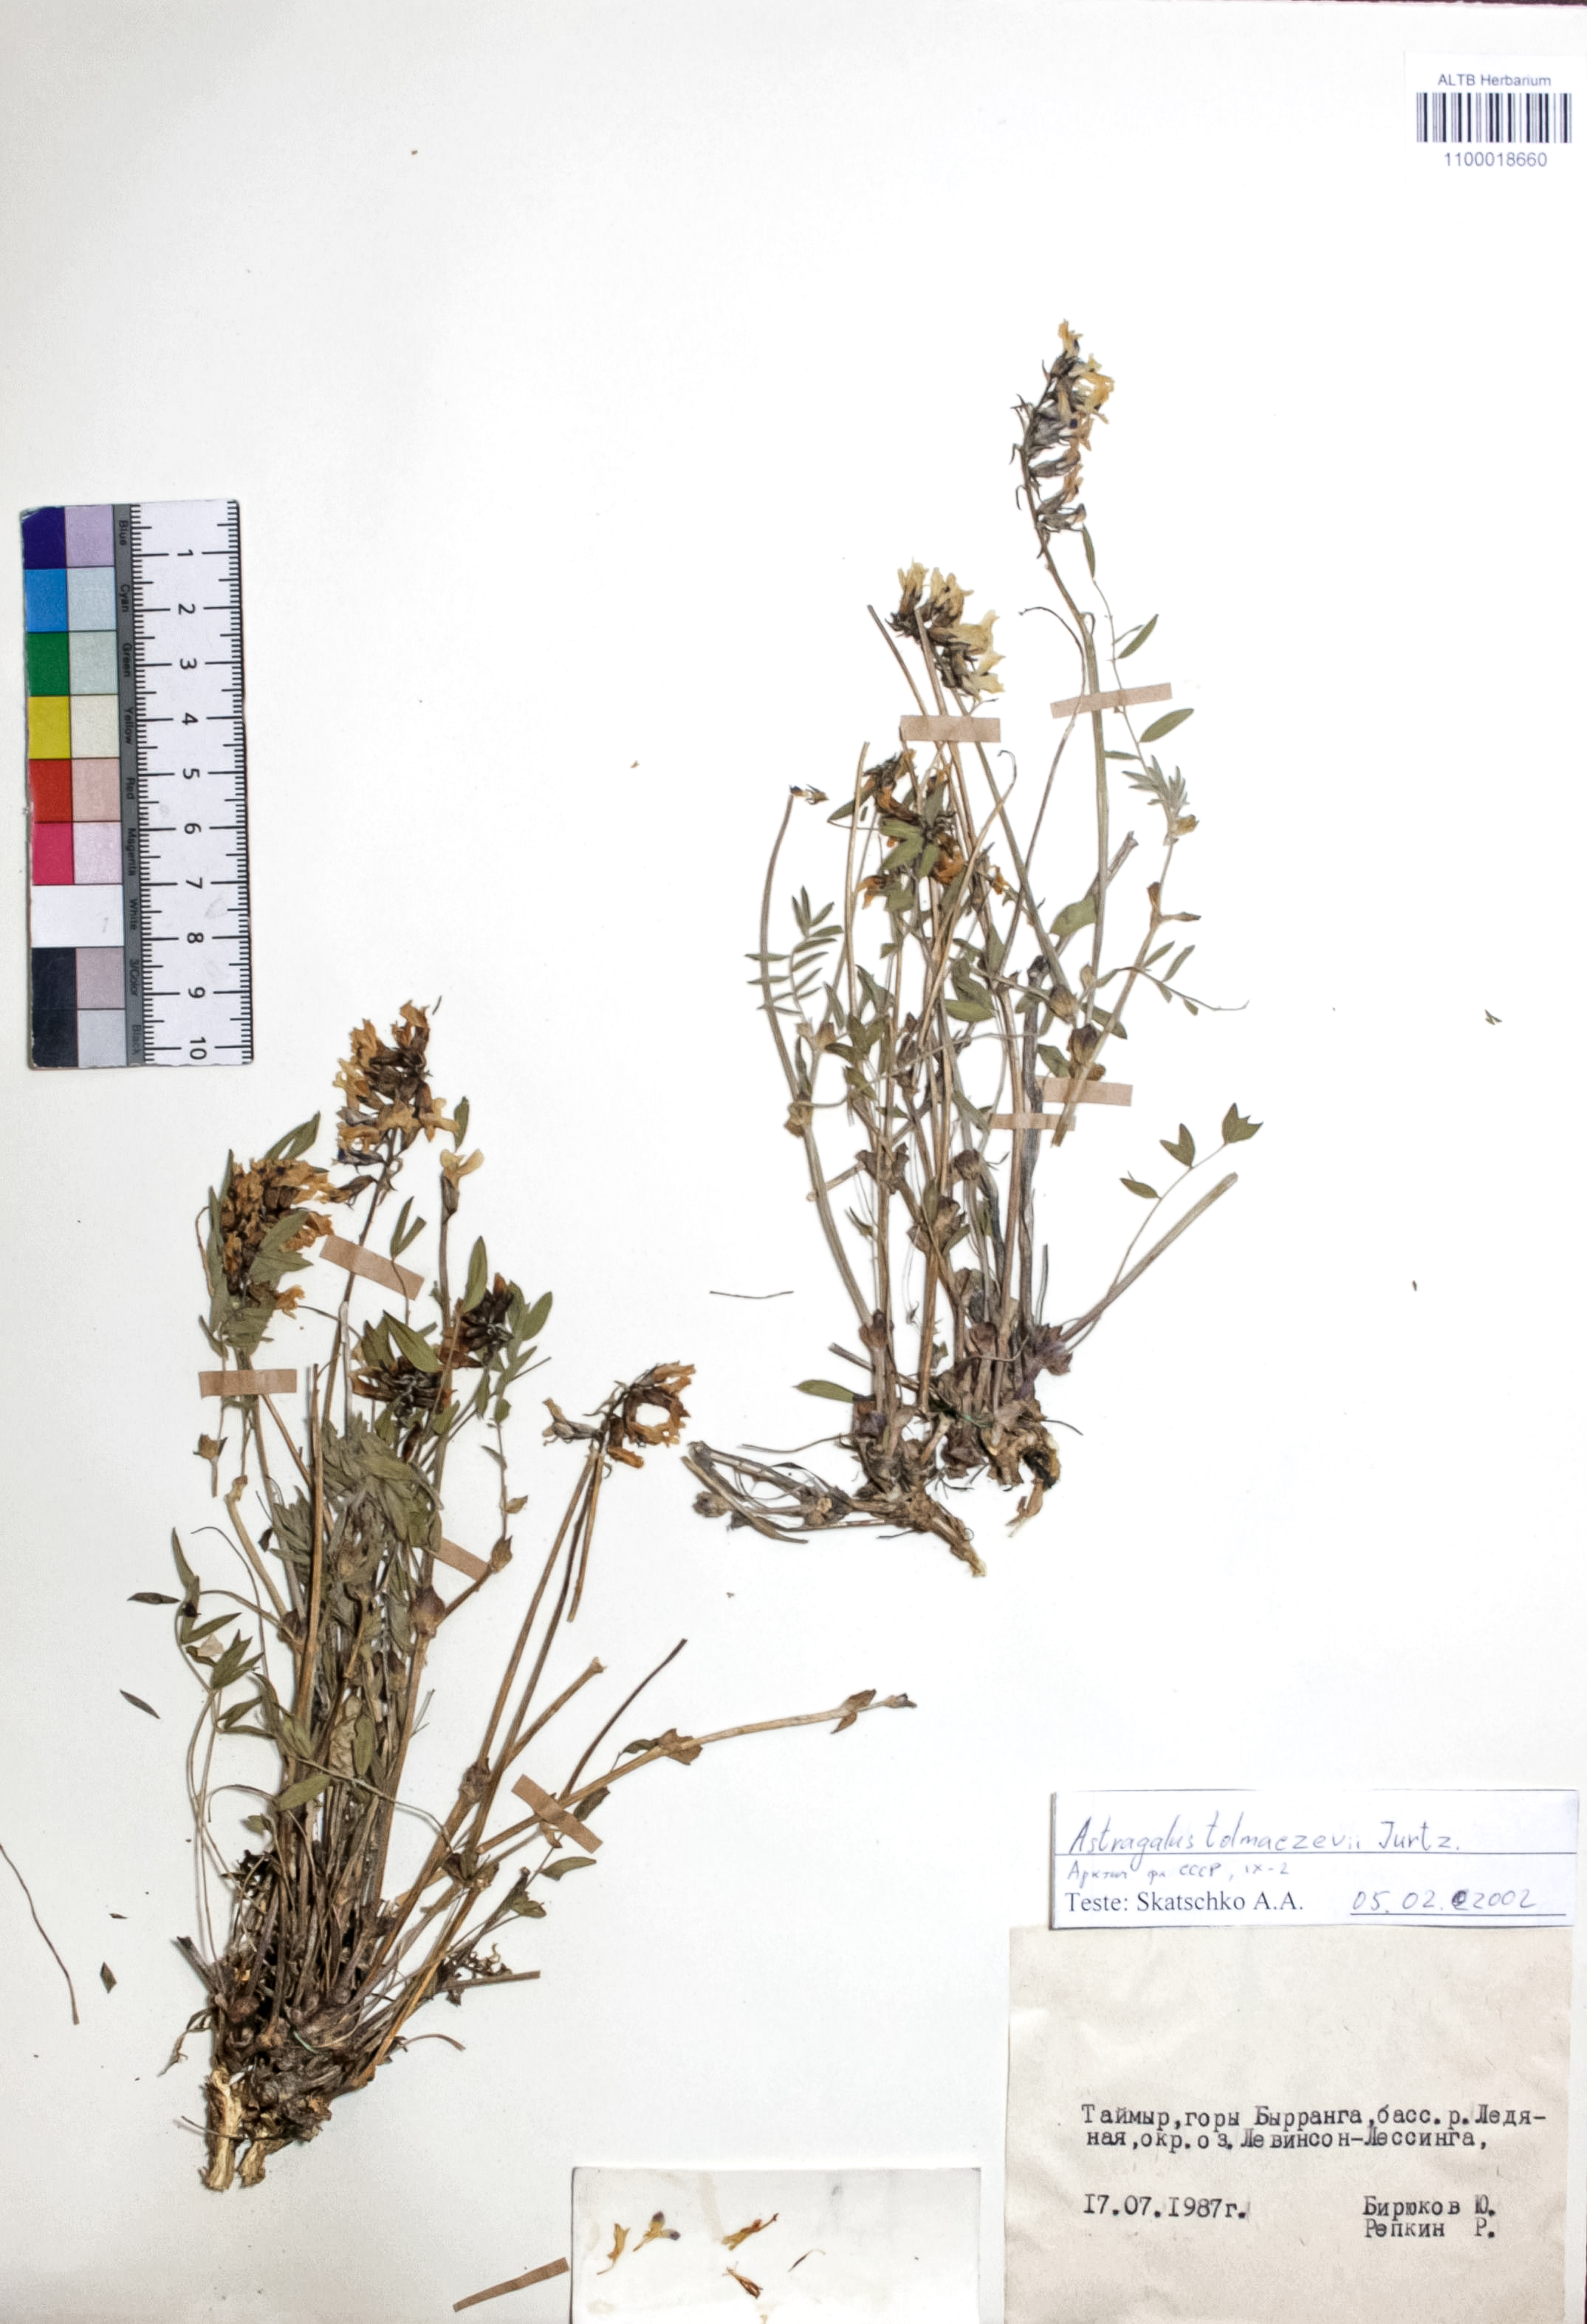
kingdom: Plantae
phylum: Tracheophyta
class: Magnoliopsida
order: Fabales
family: Fabaceae
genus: Astragalus
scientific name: Astragalus tolmaczevii
